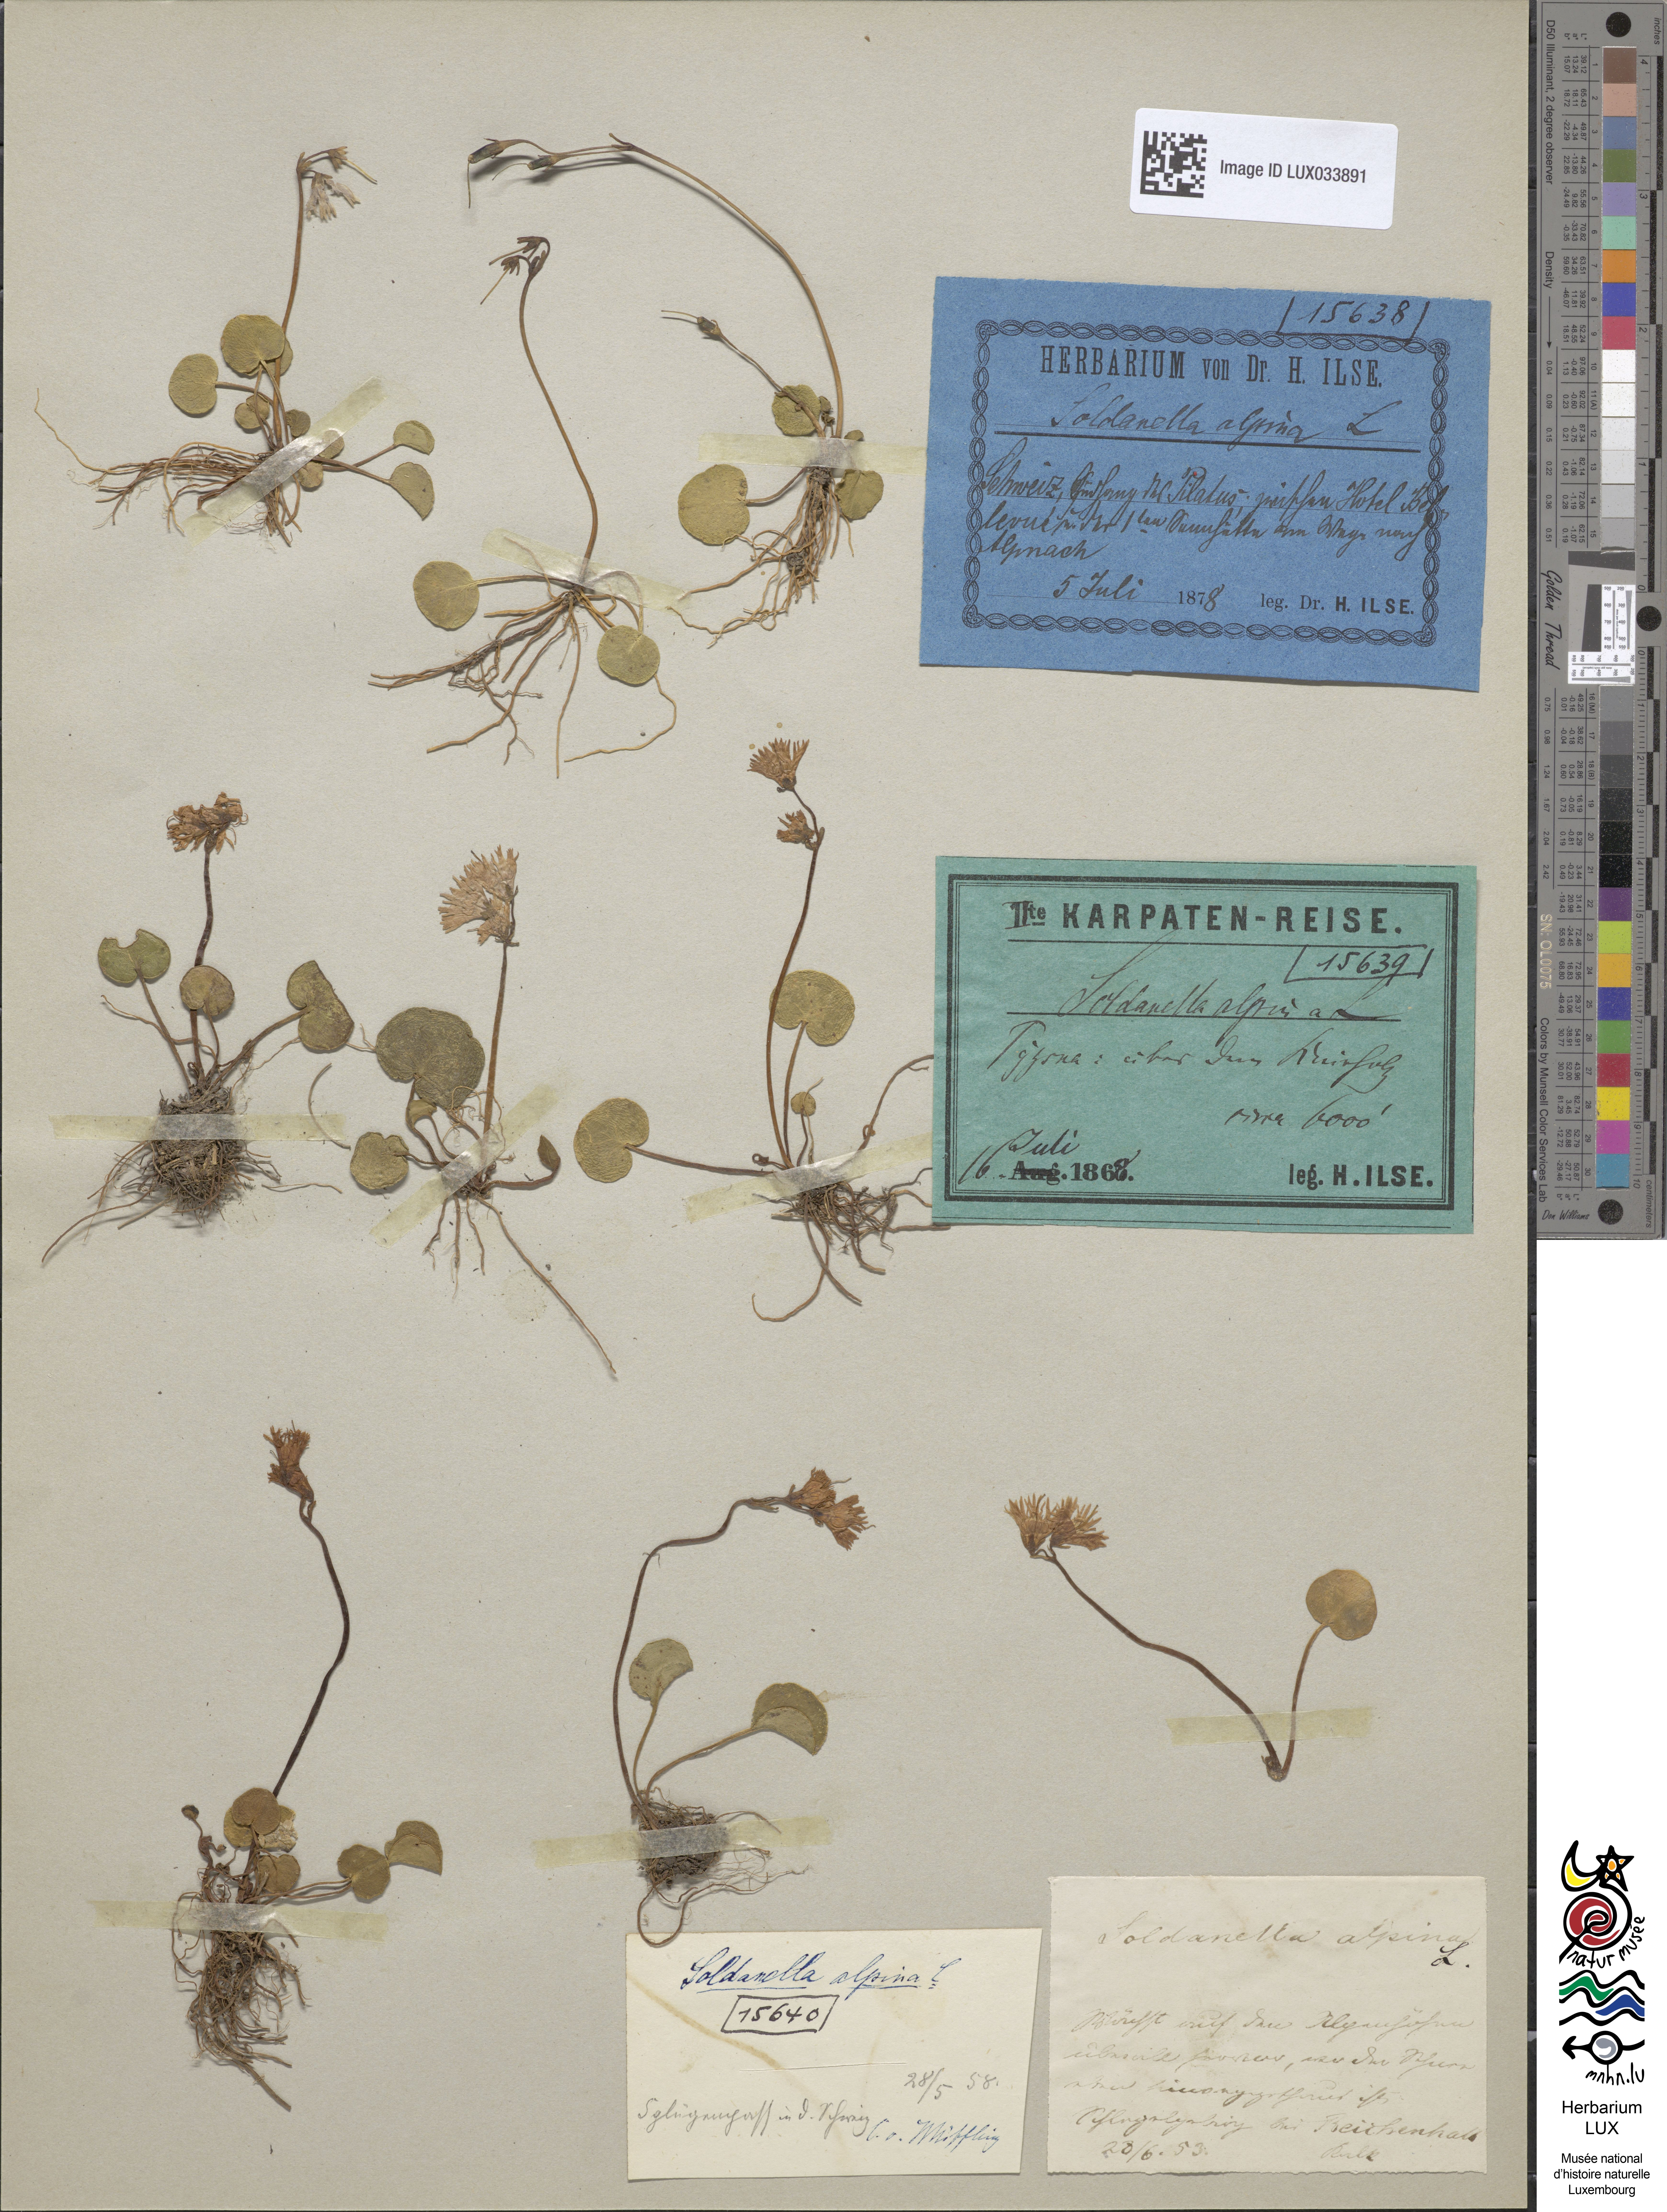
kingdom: Plantae
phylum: Tracheophyta
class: Magnoliopsida
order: Ericales
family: Primulaceae
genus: Soldanella
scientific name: Soldanella alpina
